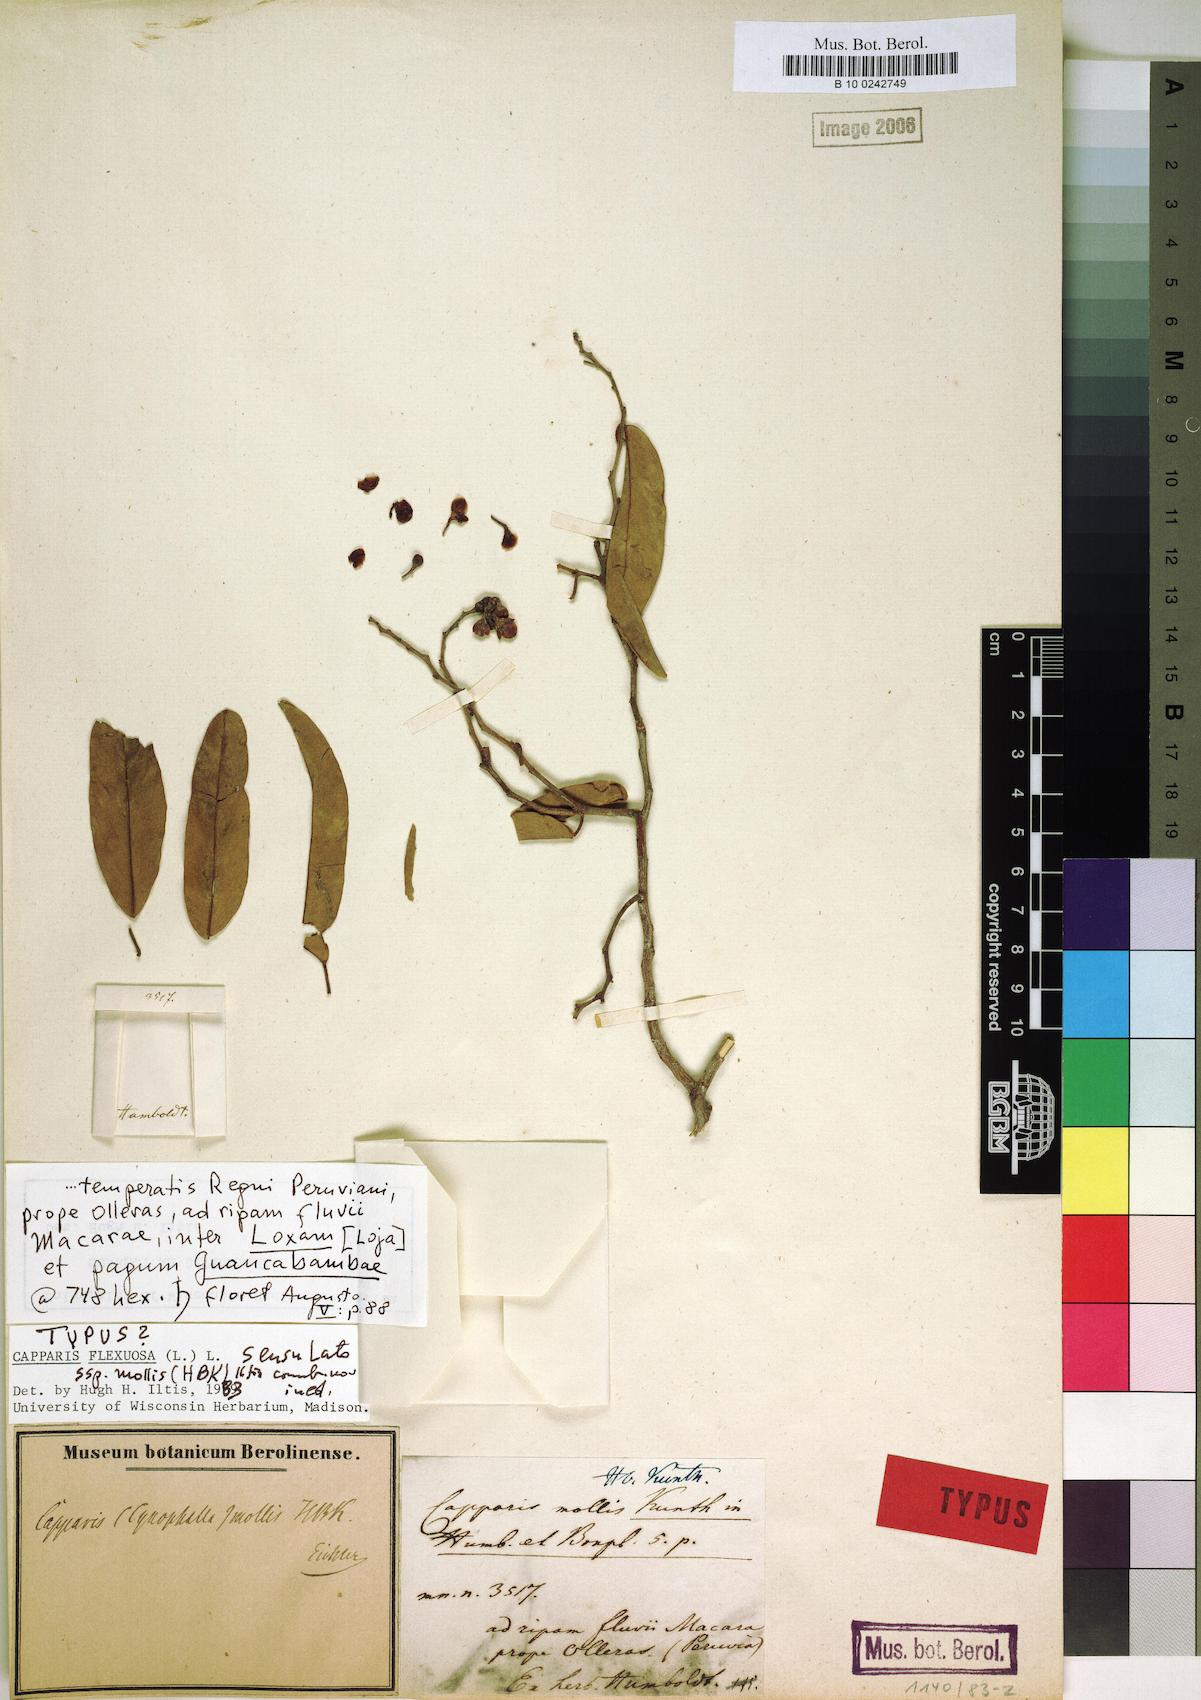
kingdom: Plantae
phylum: Tracheophyta
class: Magnoliopsida
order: Brassicales
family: Capparaceae
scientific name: Capparaceae
